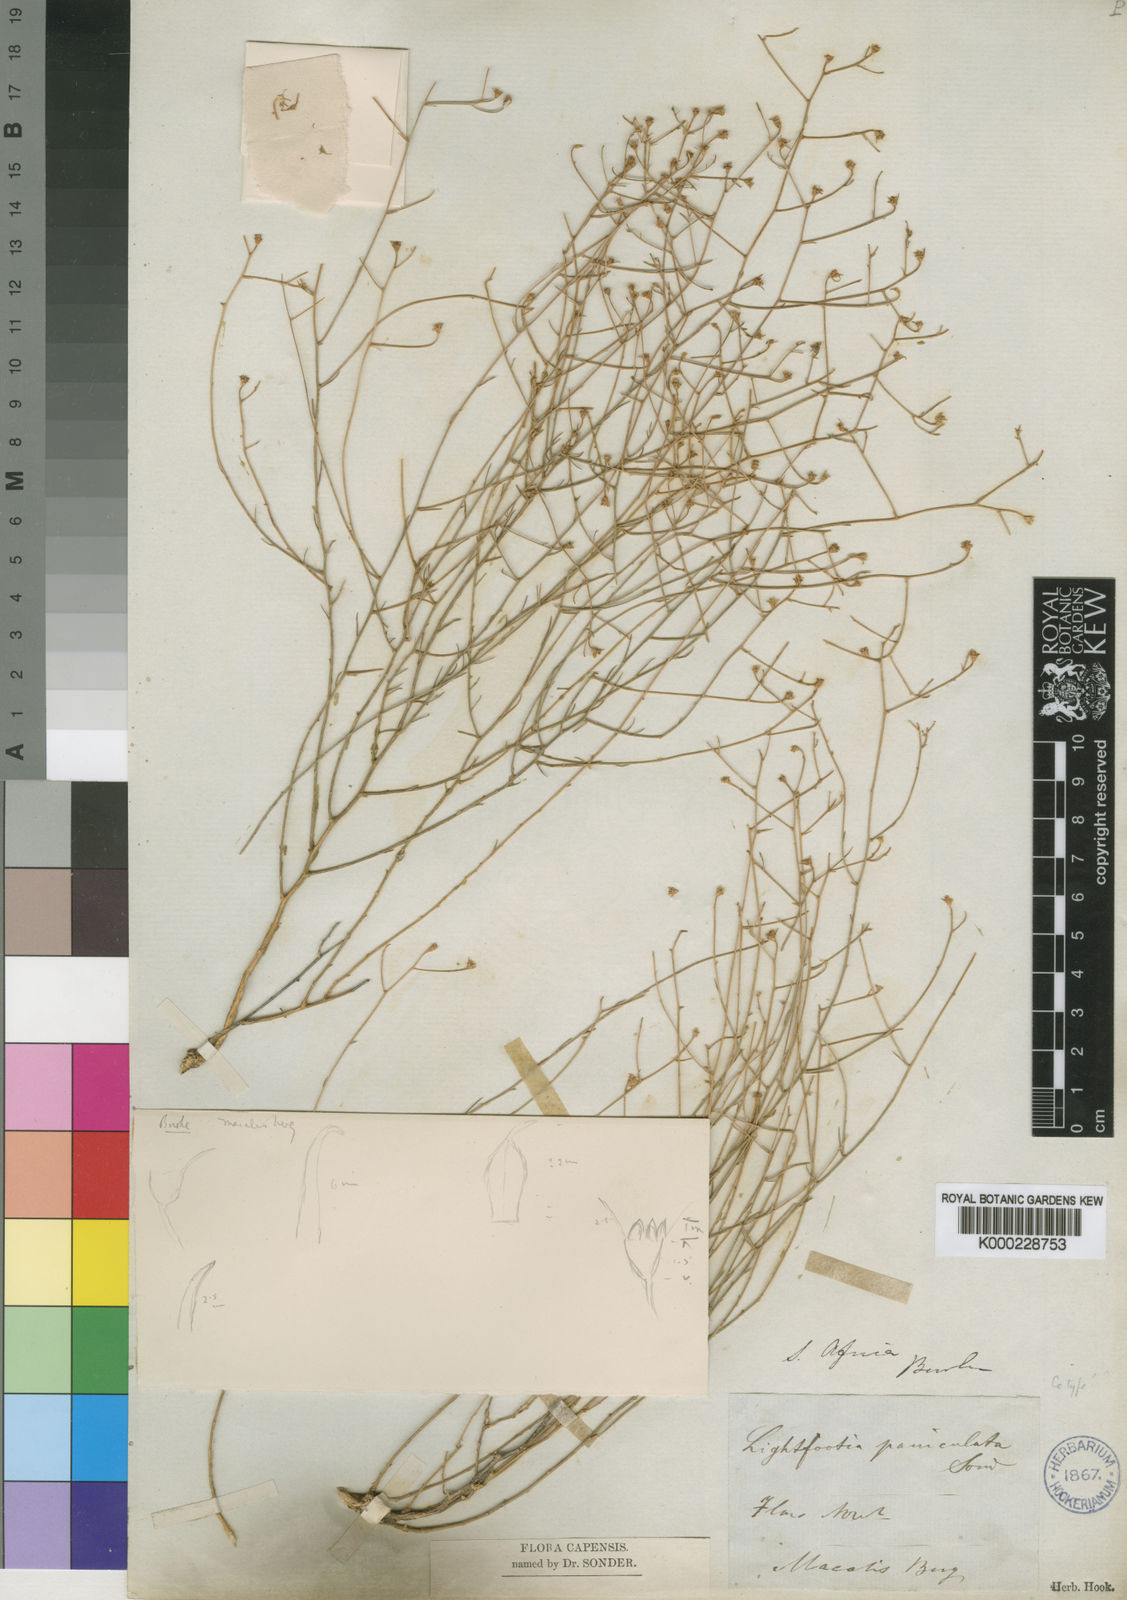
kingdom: Plantae
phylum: Tracheophyta
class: Magnoliopsida
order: Asterales
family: Campanulaceae
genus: Wahlenbergia
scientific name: Wahlenbergia magaliesbergensis
